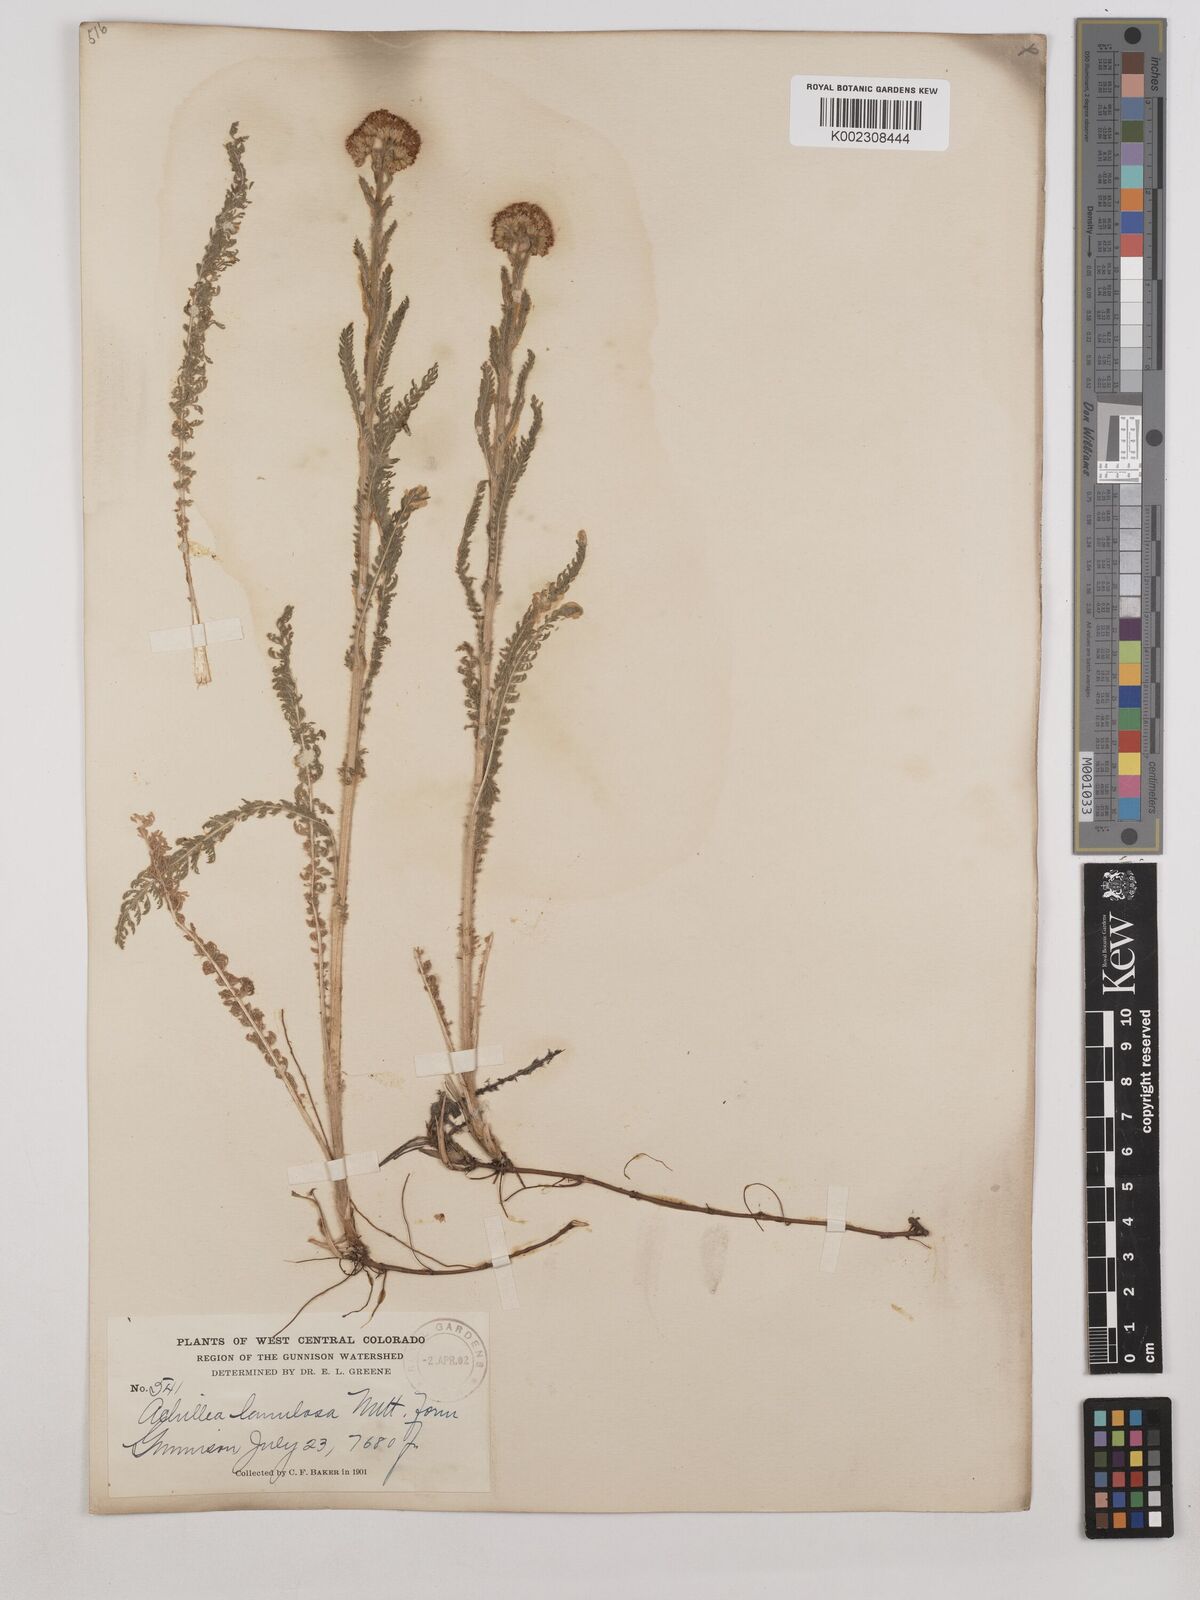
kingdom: Plantae
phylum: Tracheophyta
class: Magnoliopsida
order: Asterales
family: Asteraceae
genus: Achillea
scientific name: Achillea millefolium
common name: Yarrow
